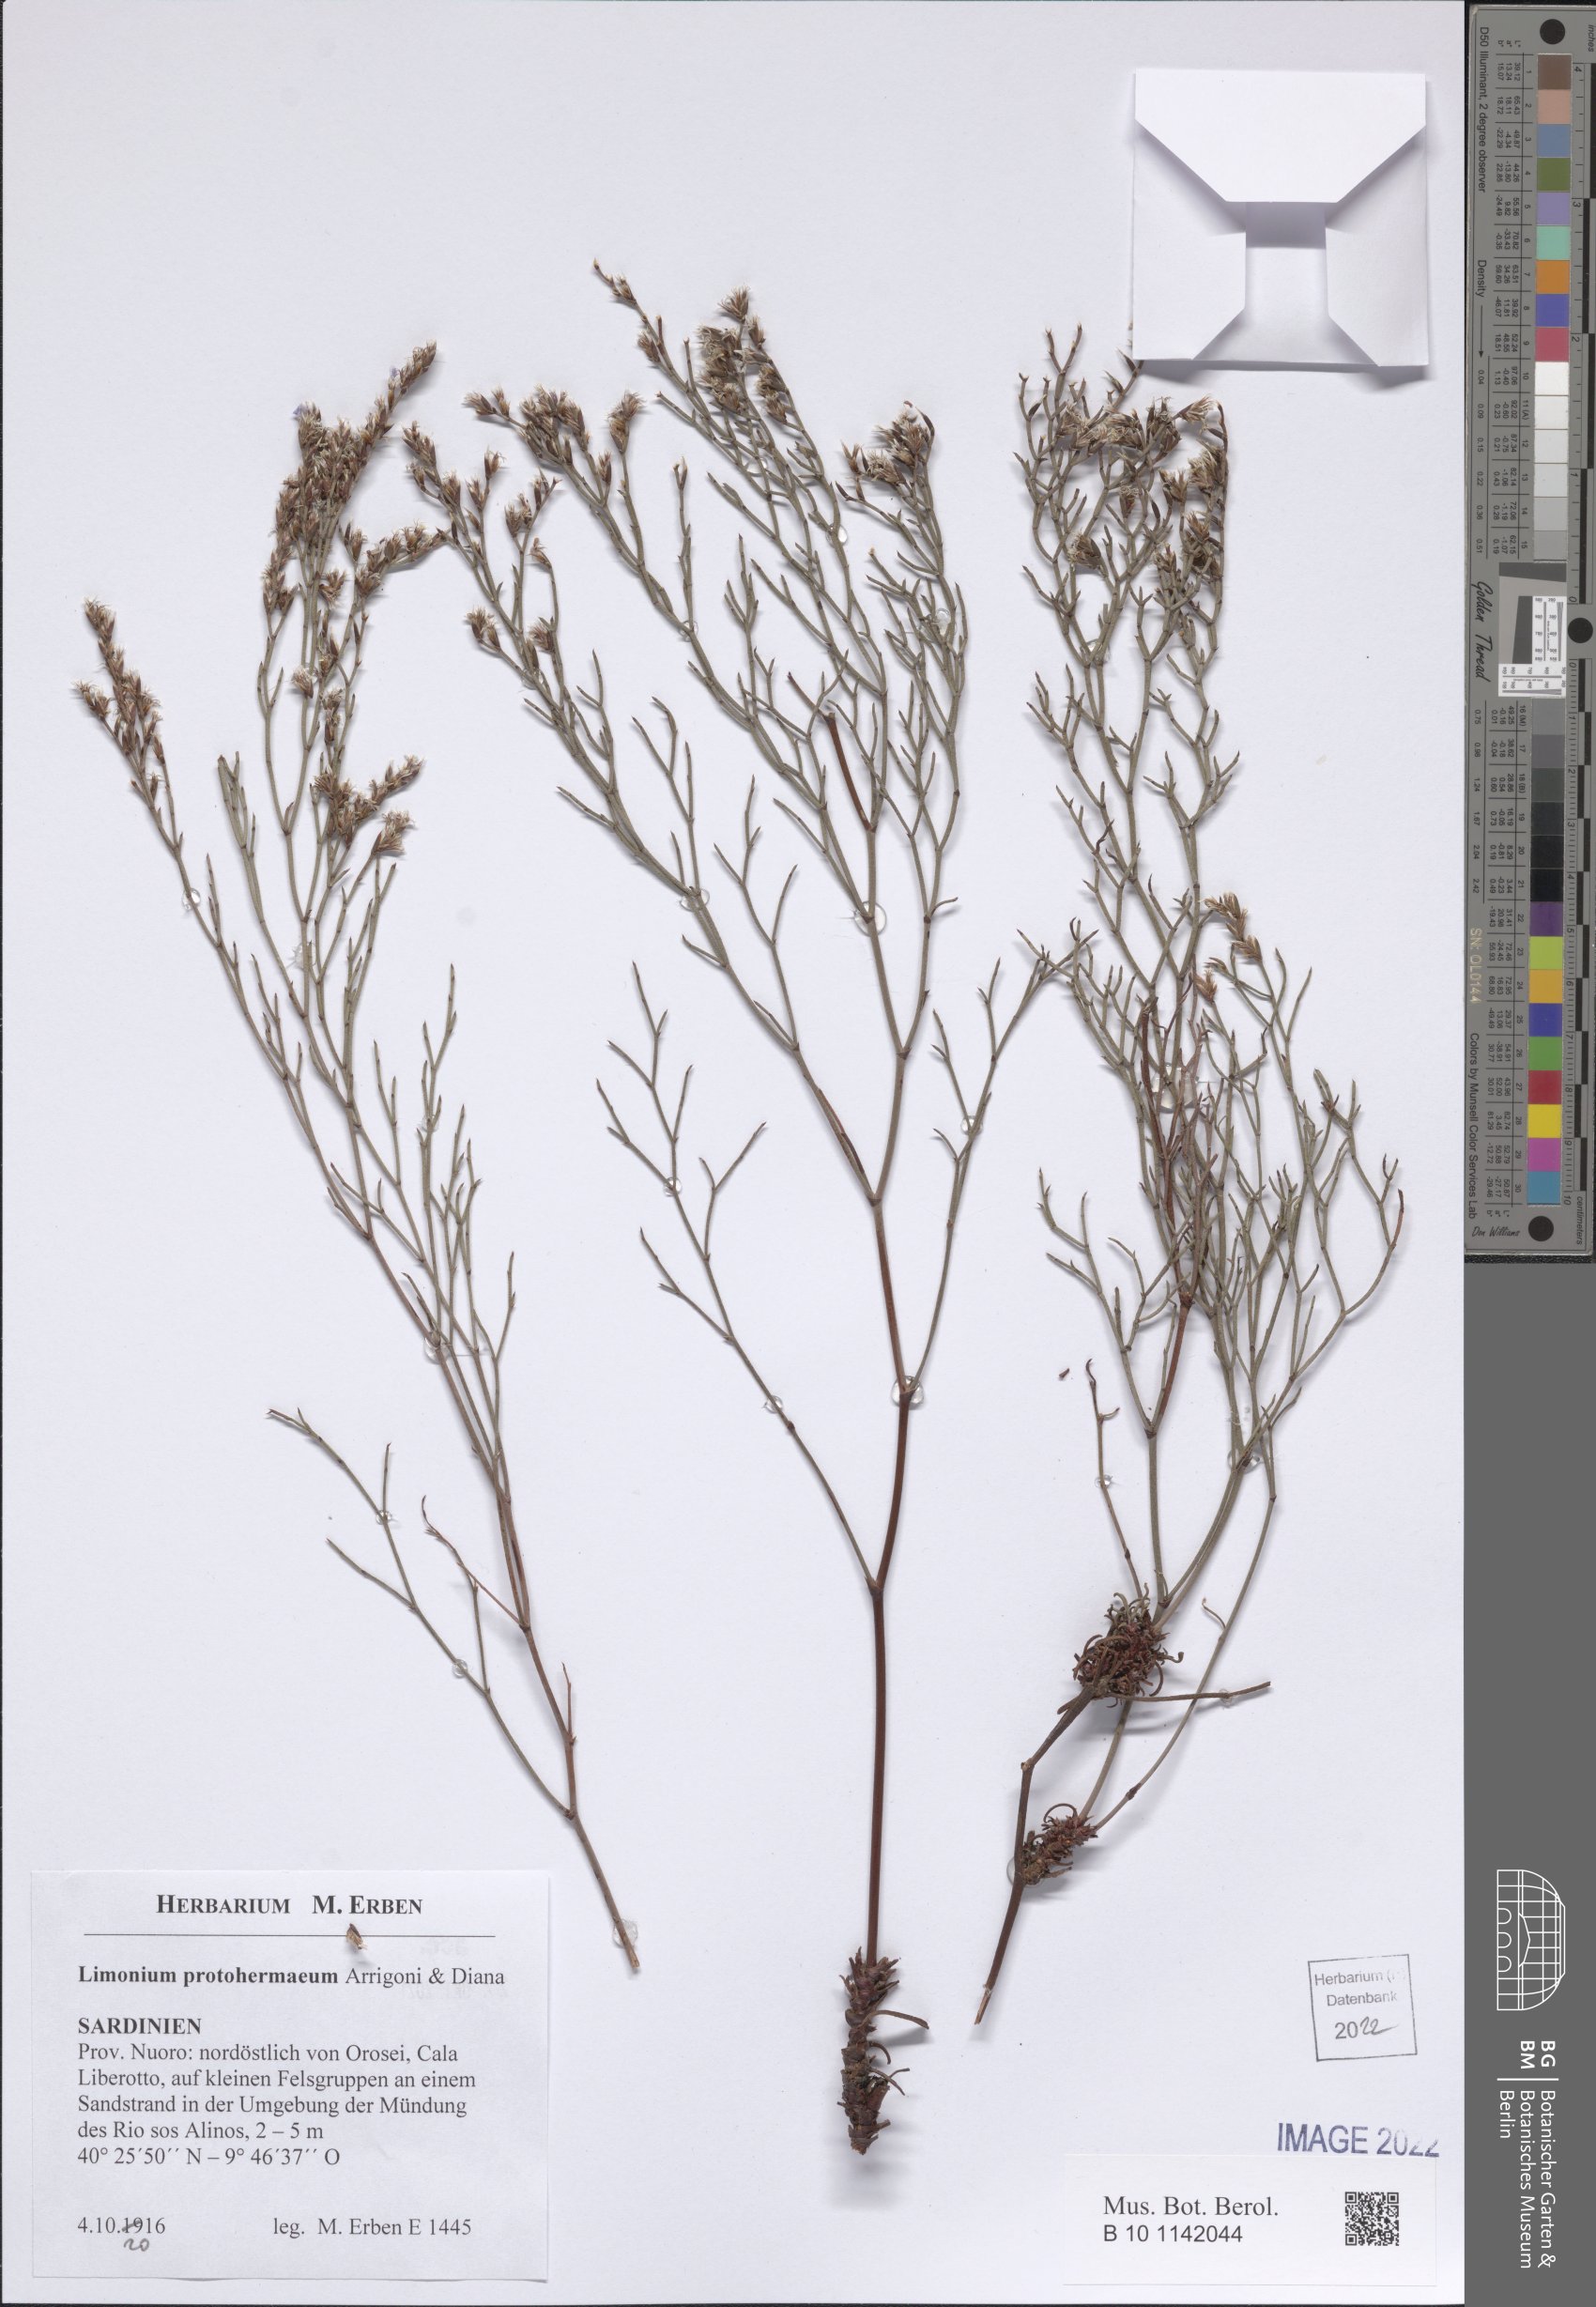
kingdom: Plantae
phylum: Tracheophyta
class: Magnoliopsida
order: Caryophyllales
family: Plumbaginaceae
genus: Limonium
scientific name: Limonium protohermaeum
